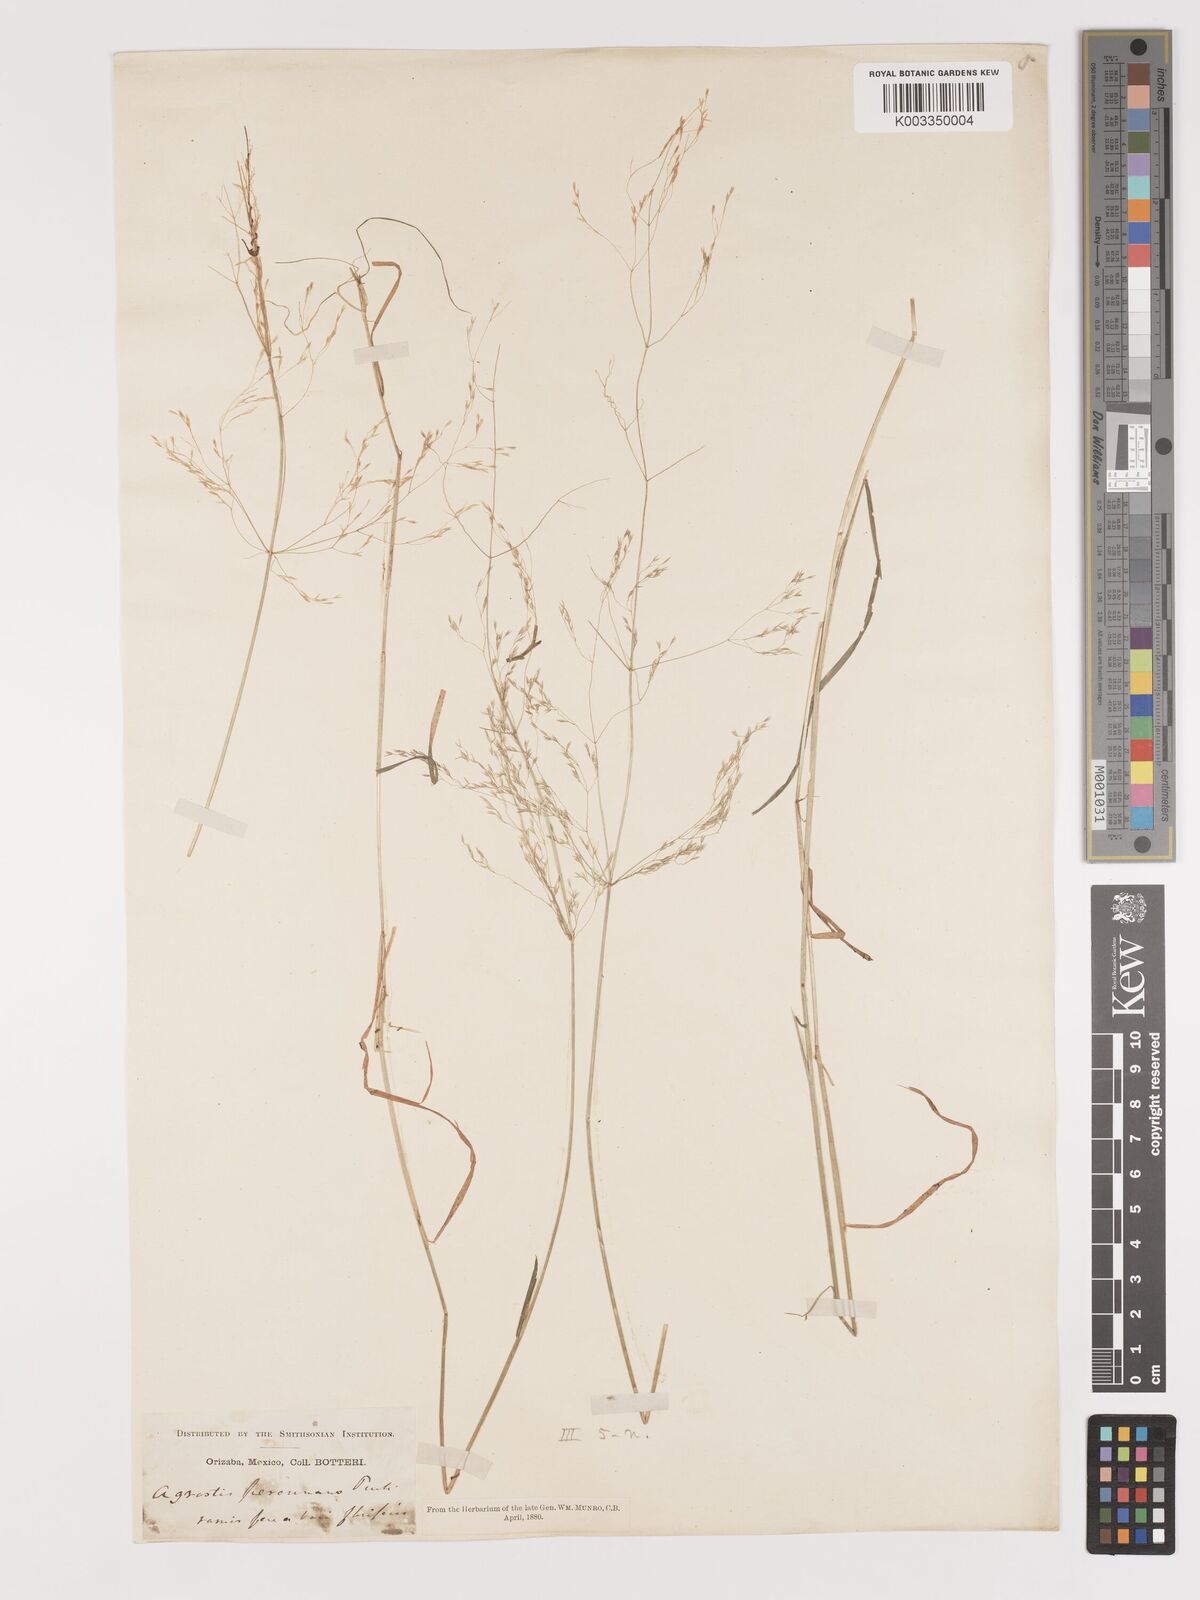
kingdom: Plantae
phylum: Tracheophyta
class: Liliopsida
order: Poales
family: Poaceae
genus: Agrostis
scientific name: Agrostis hyemalis
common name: Small bent
